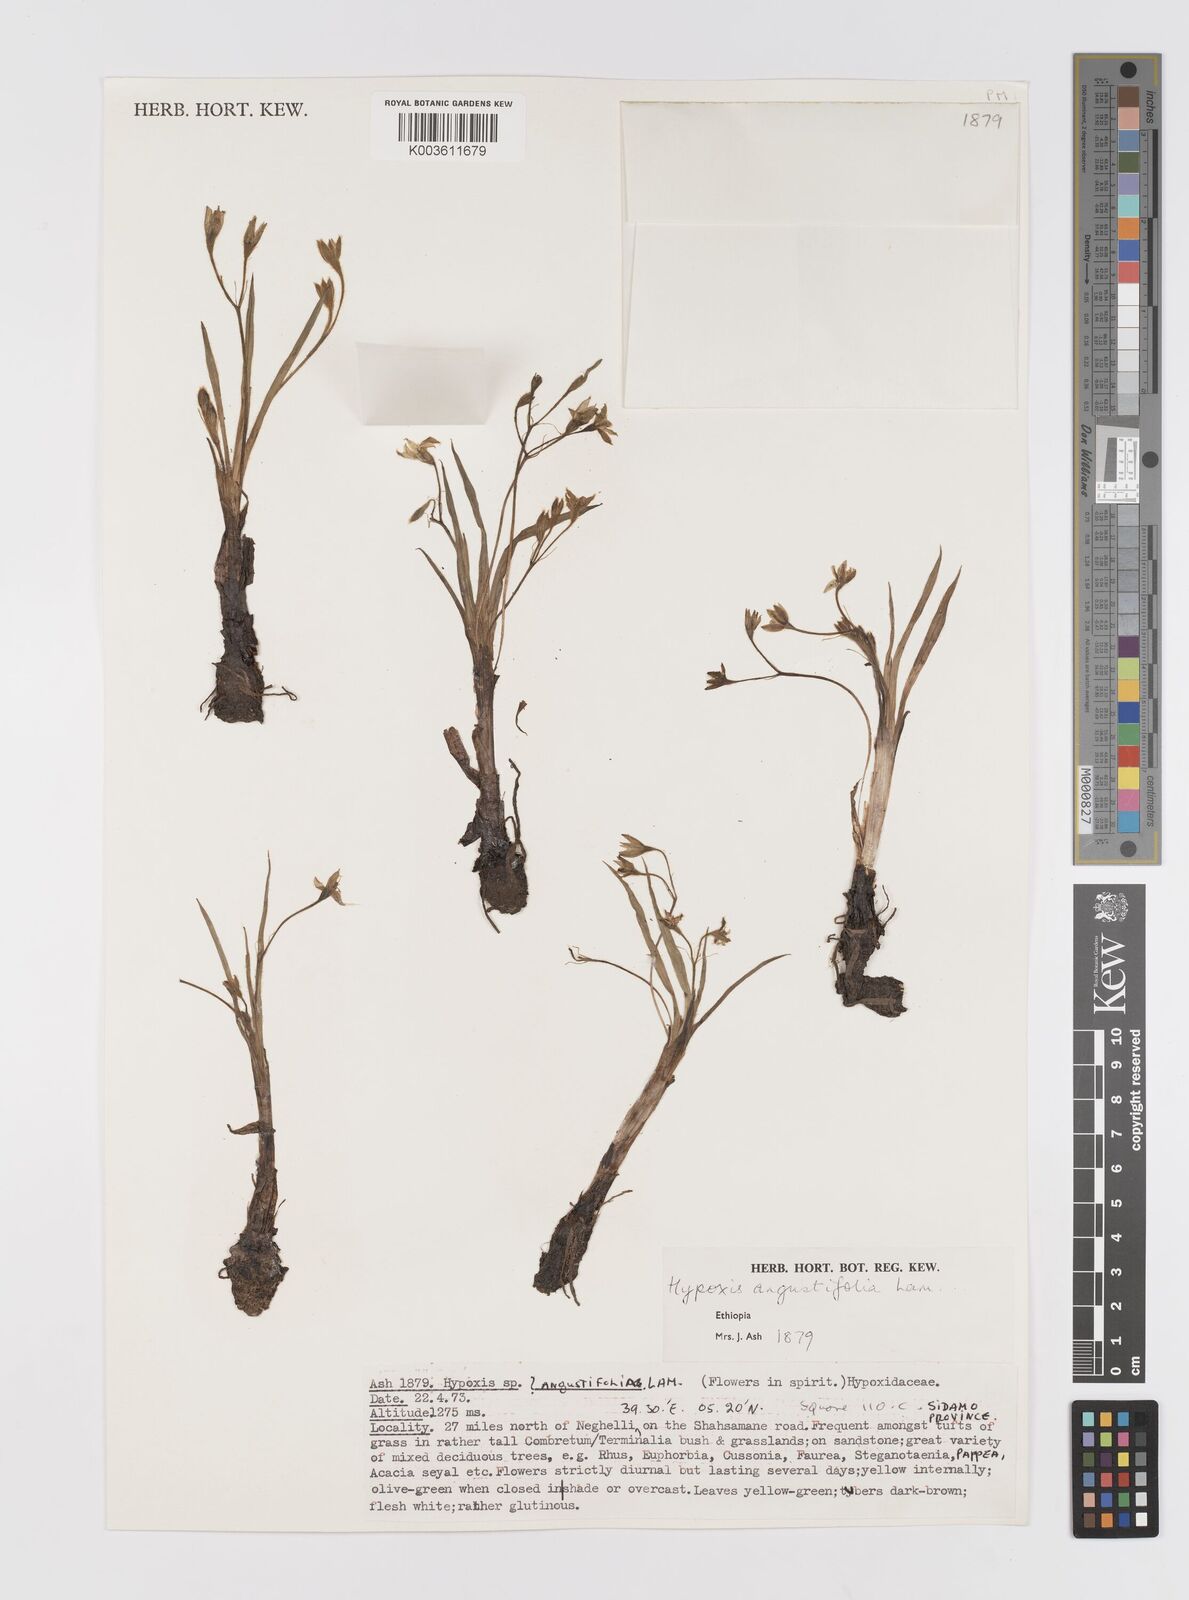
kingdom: Plantae
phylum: Tracheophyta
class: Liliopsida
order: Asparagales
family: Hypoxidaceae
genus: Hypoxis
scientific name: Hypoxis angustifolia
